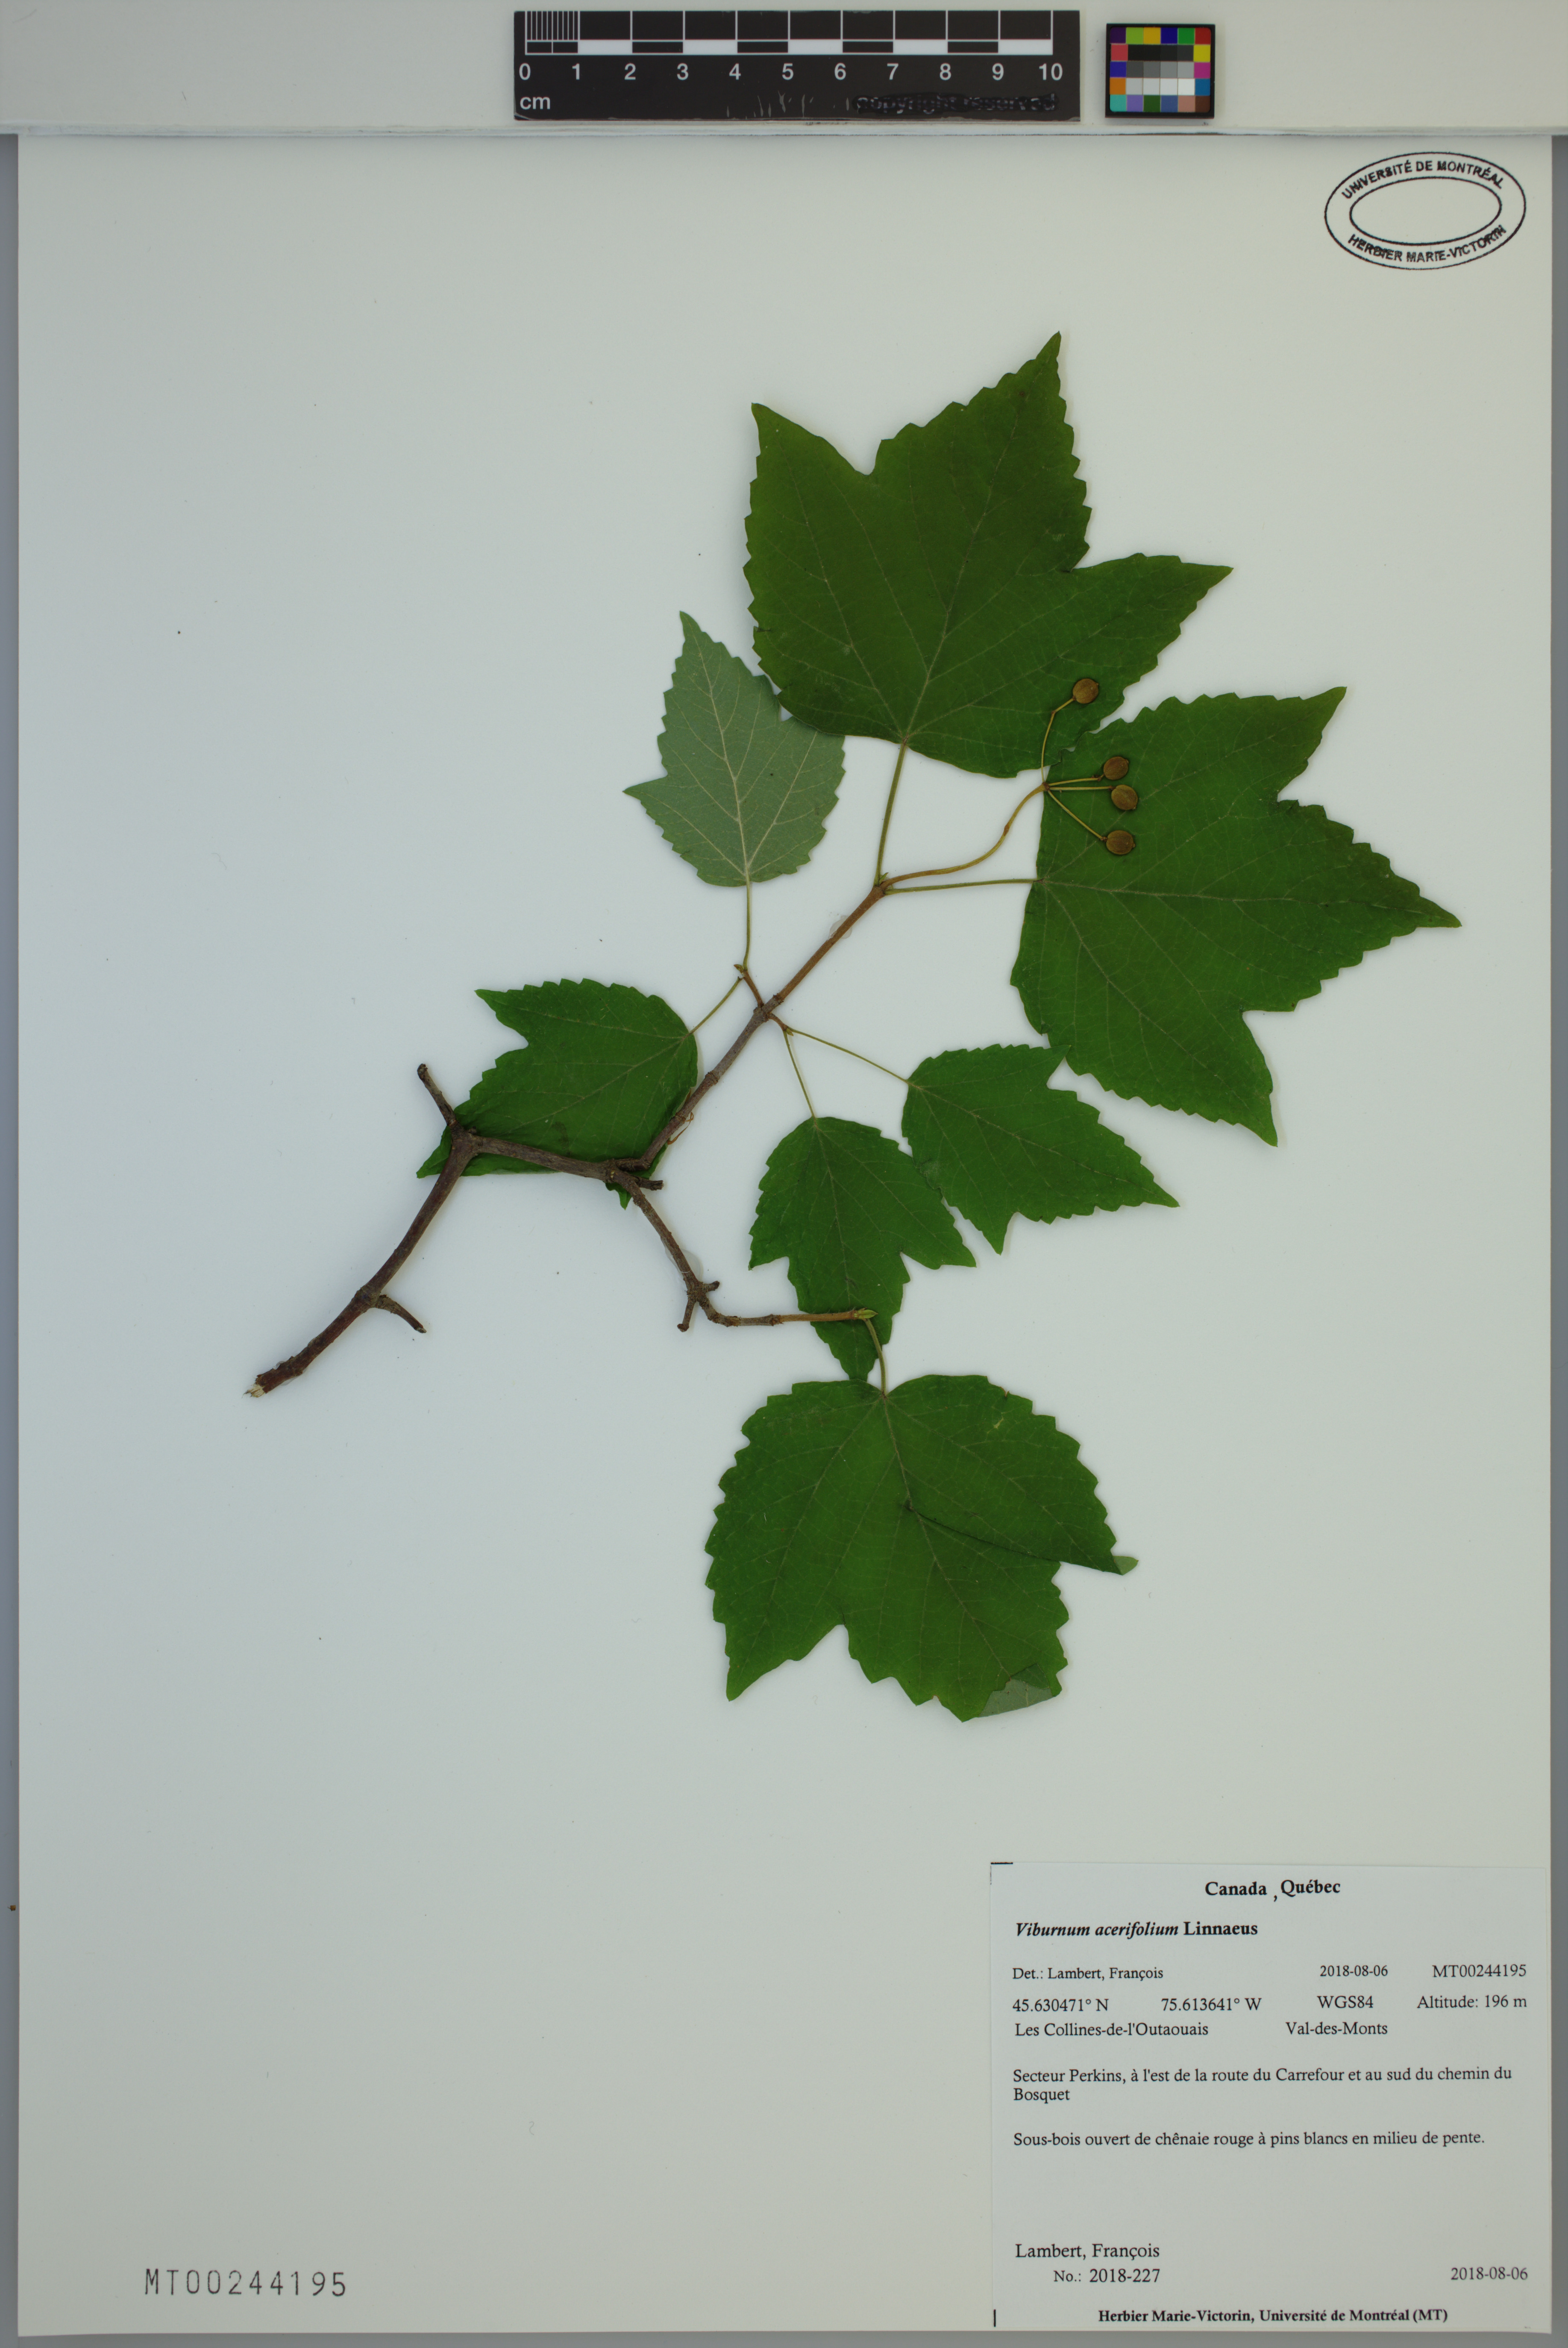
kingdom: Plantae
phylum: Tracheophyta
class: Magnoliopsida
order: Dipsacales
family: Viburnaceae
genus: Viburnum
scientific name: Viburnum acerifolium
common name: Dockmackie
